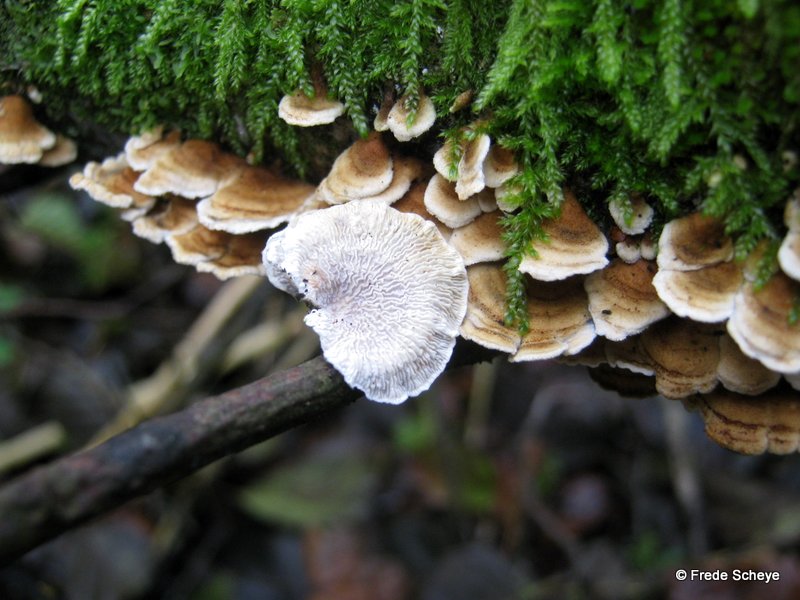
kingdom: Fungi
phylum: Basidiomycota
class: Agaricomycetes
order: Amylocorticiales
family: Amylocorticiaceae
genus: Plicaturopsis
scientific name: Plicaturopsis crispa
